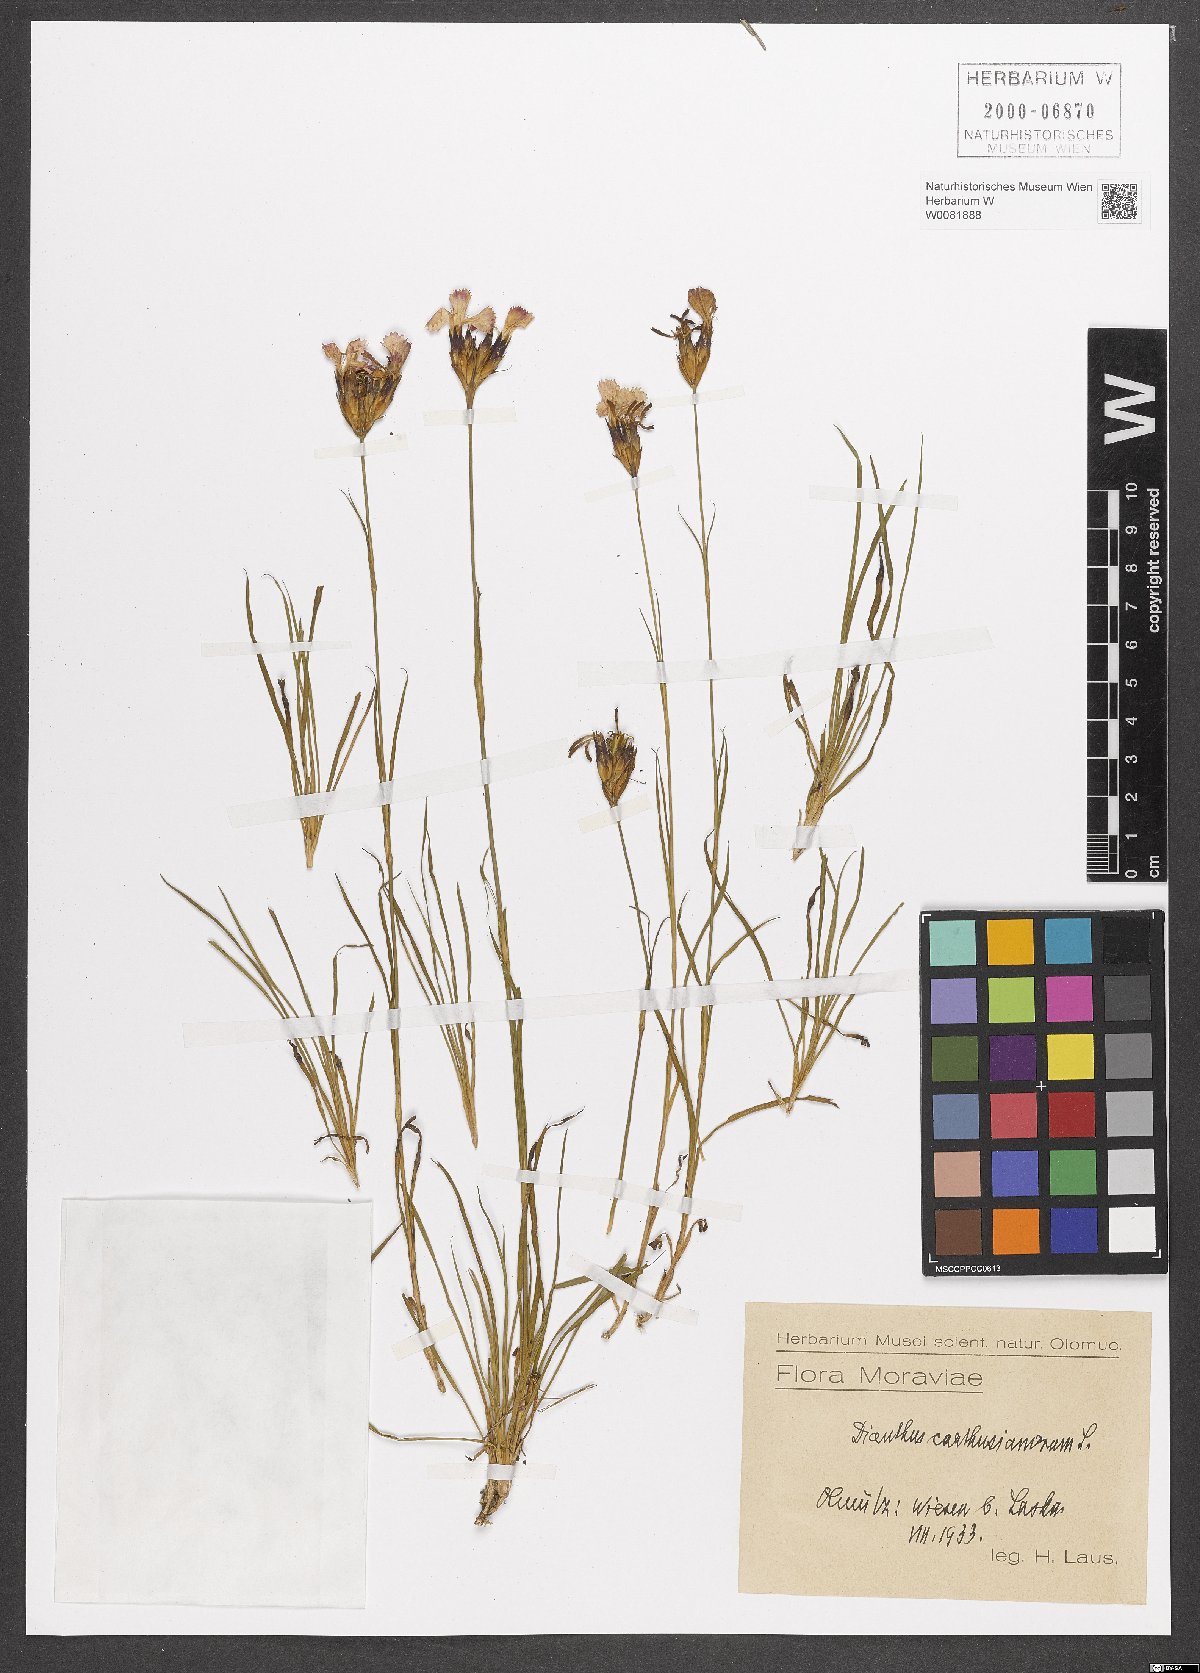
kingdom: Plantae
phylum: Tracheophyta
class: Magnoliopsida
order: Caryophyllales
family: Caryophyllaceae
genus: Dianthus
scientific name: Dianthus carthusianorum
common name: Carthusian pink
